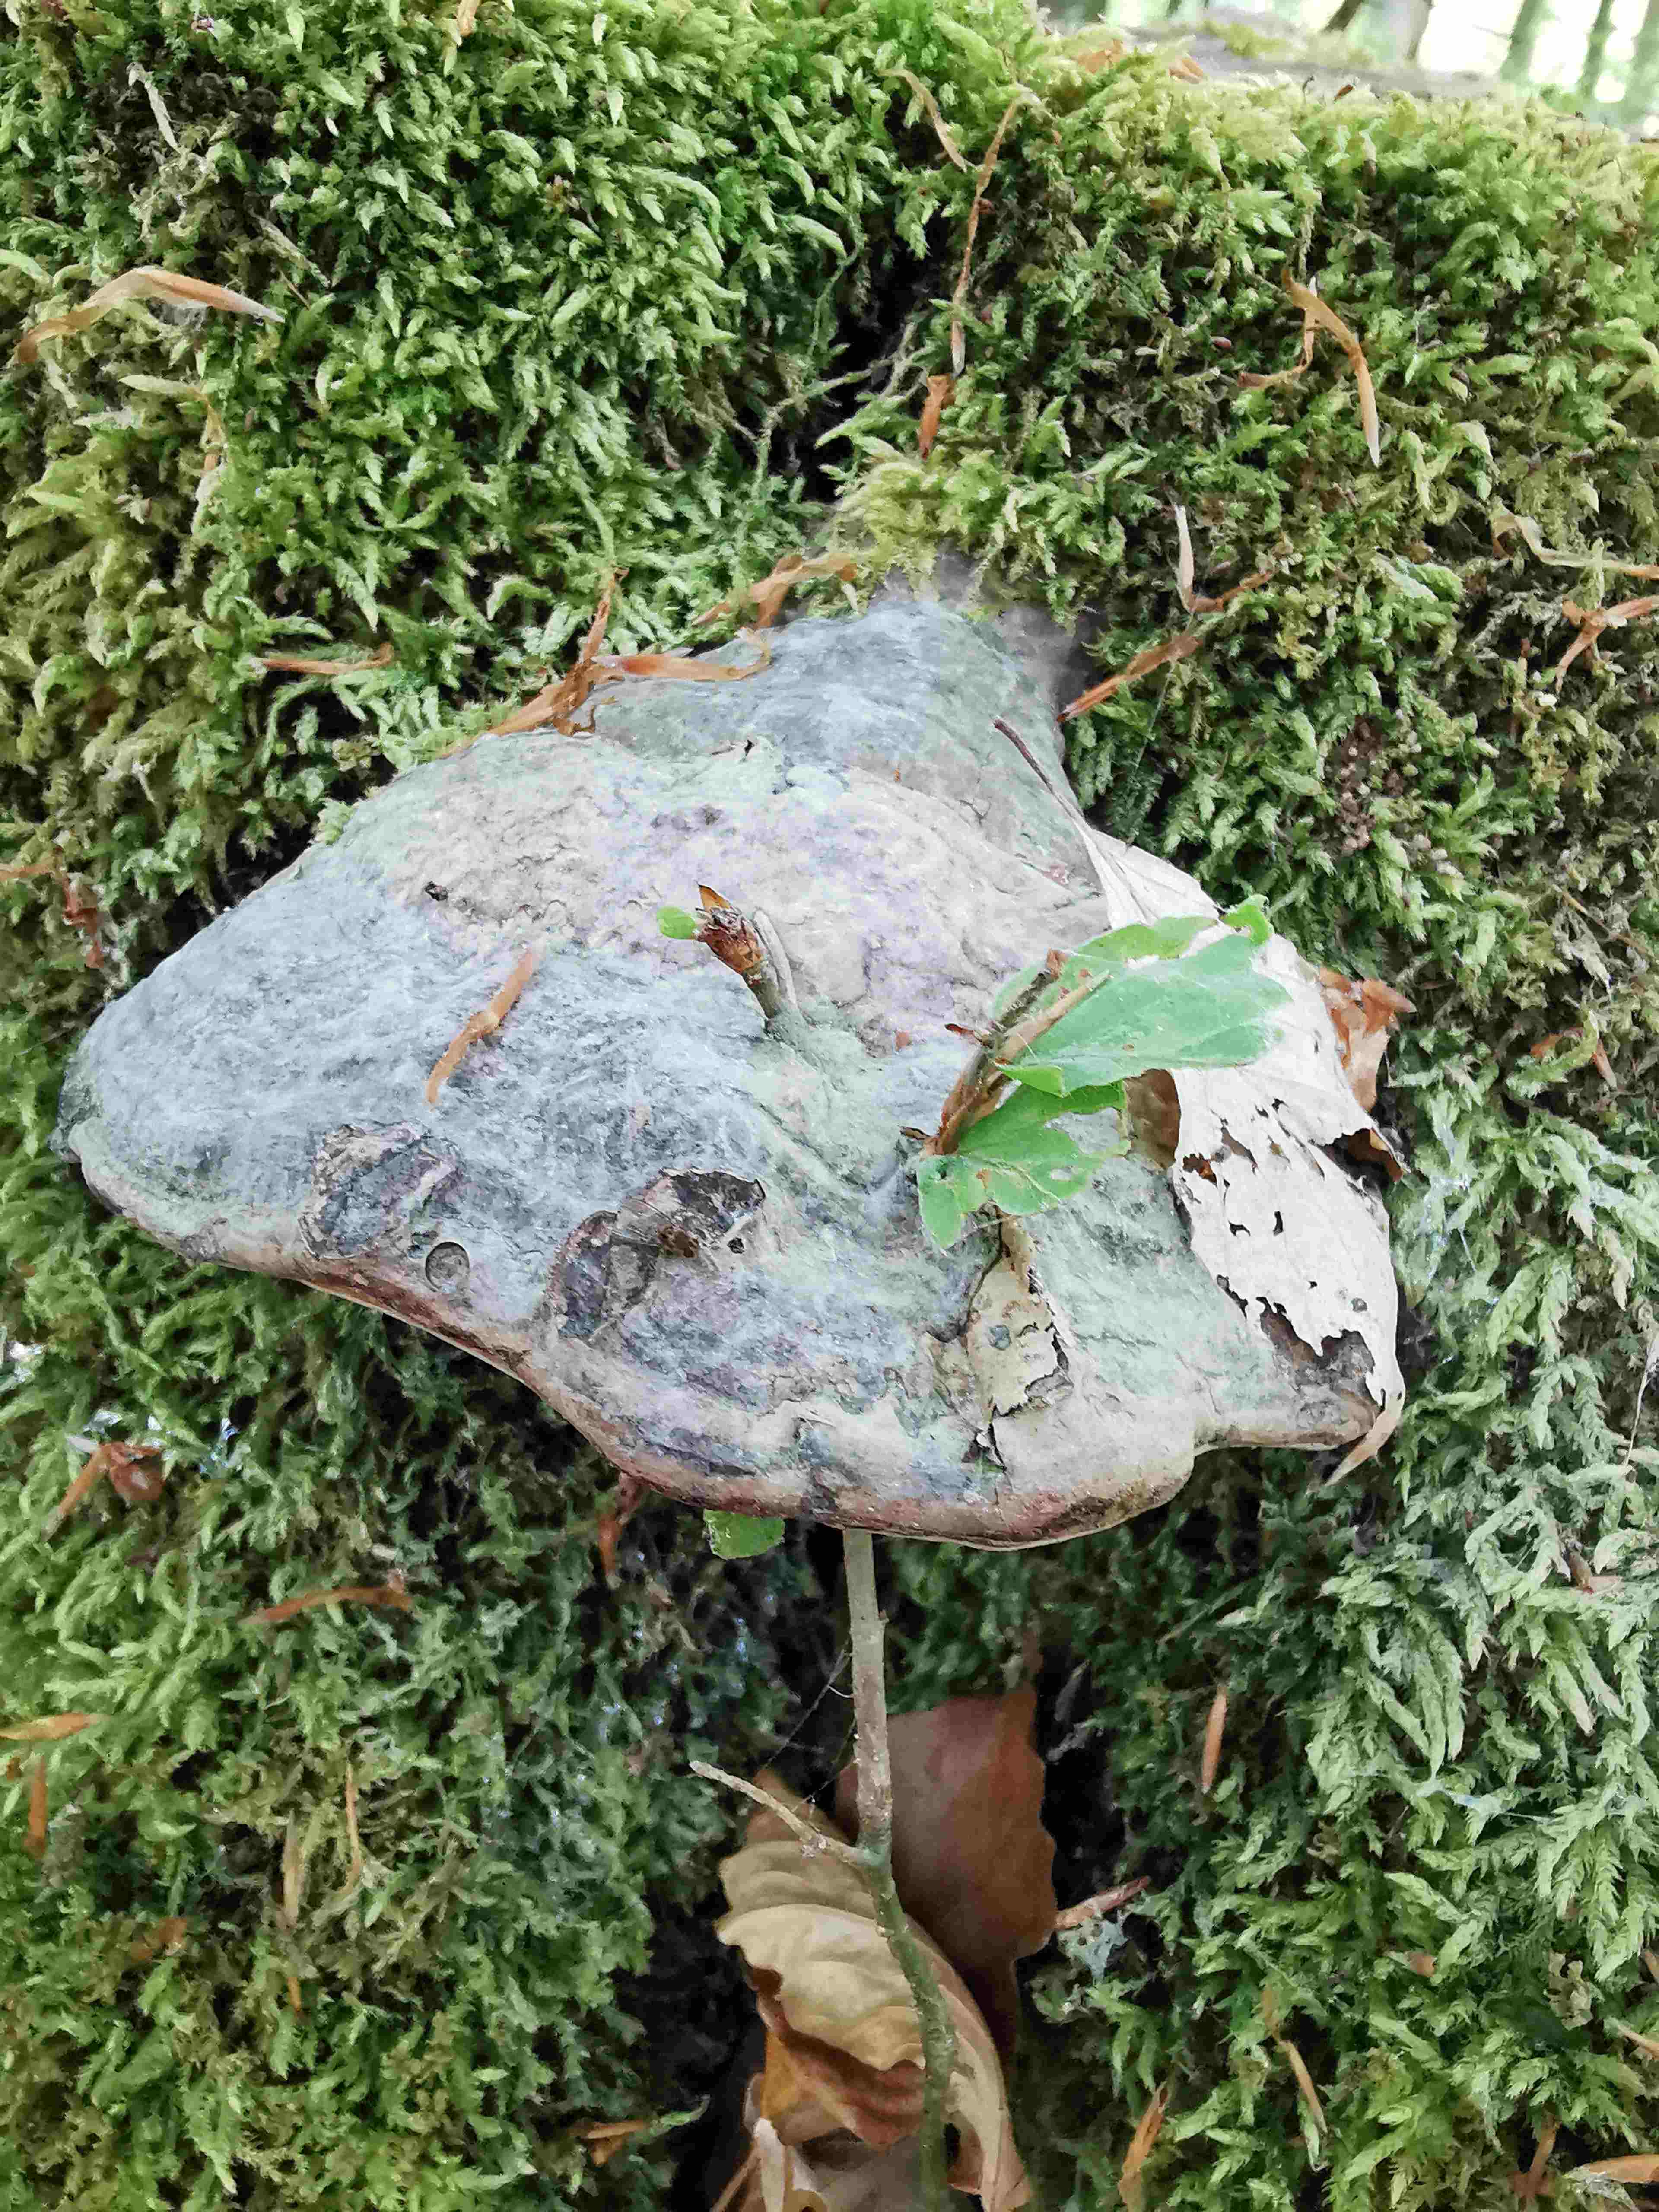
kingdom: Fungi
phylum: Basidiomycota
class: Agaricomycetes
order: Polyporales
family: Polyporaceae
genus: Fomes
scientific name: Fomes fomentarius
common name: tøndersvamp
